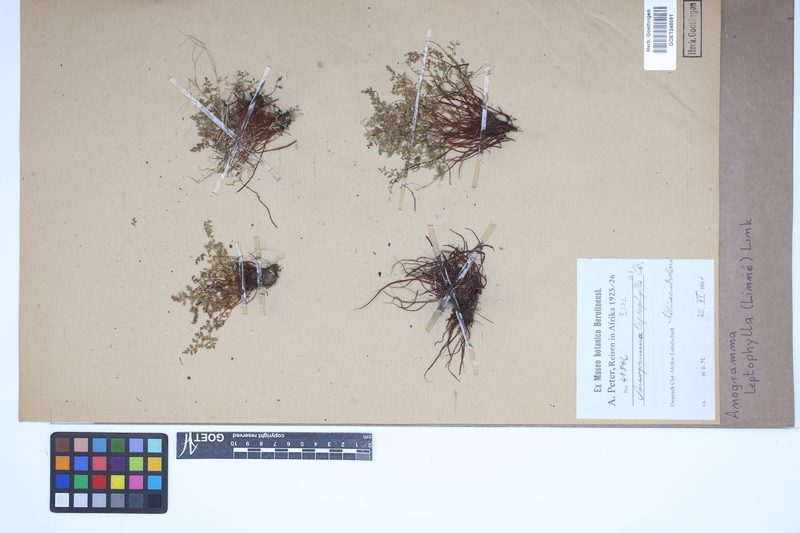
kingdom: Plantae
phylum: Tracheophyta
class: Polypodiopsida
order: Polypodiales
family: Pteridaceae
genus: Anogramma
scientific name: Anogramma leptophylla
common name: Jersey fern
